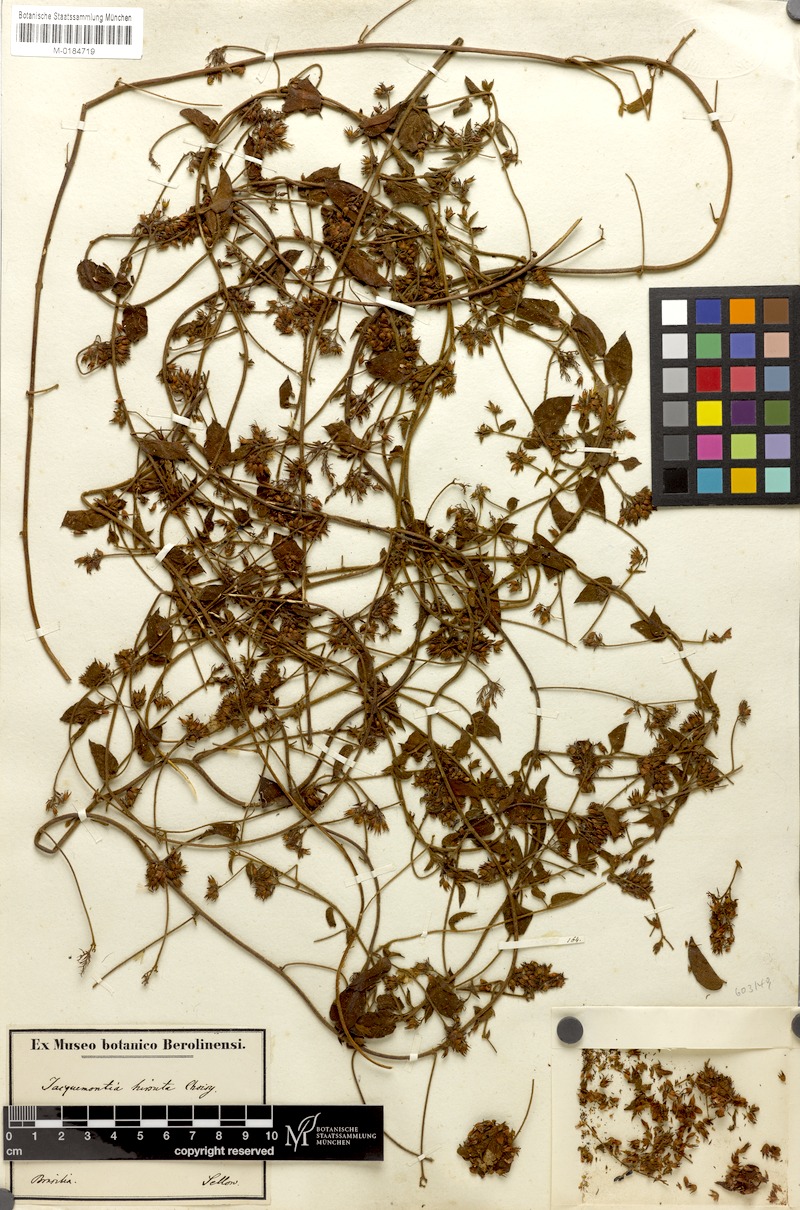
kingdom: Plantae
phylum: Tracheophyta
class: Magnoliopsida
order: Solanales
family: Convolvulaceae
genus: Jacquemontia
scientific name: Jacquemontia sphaerostigma
